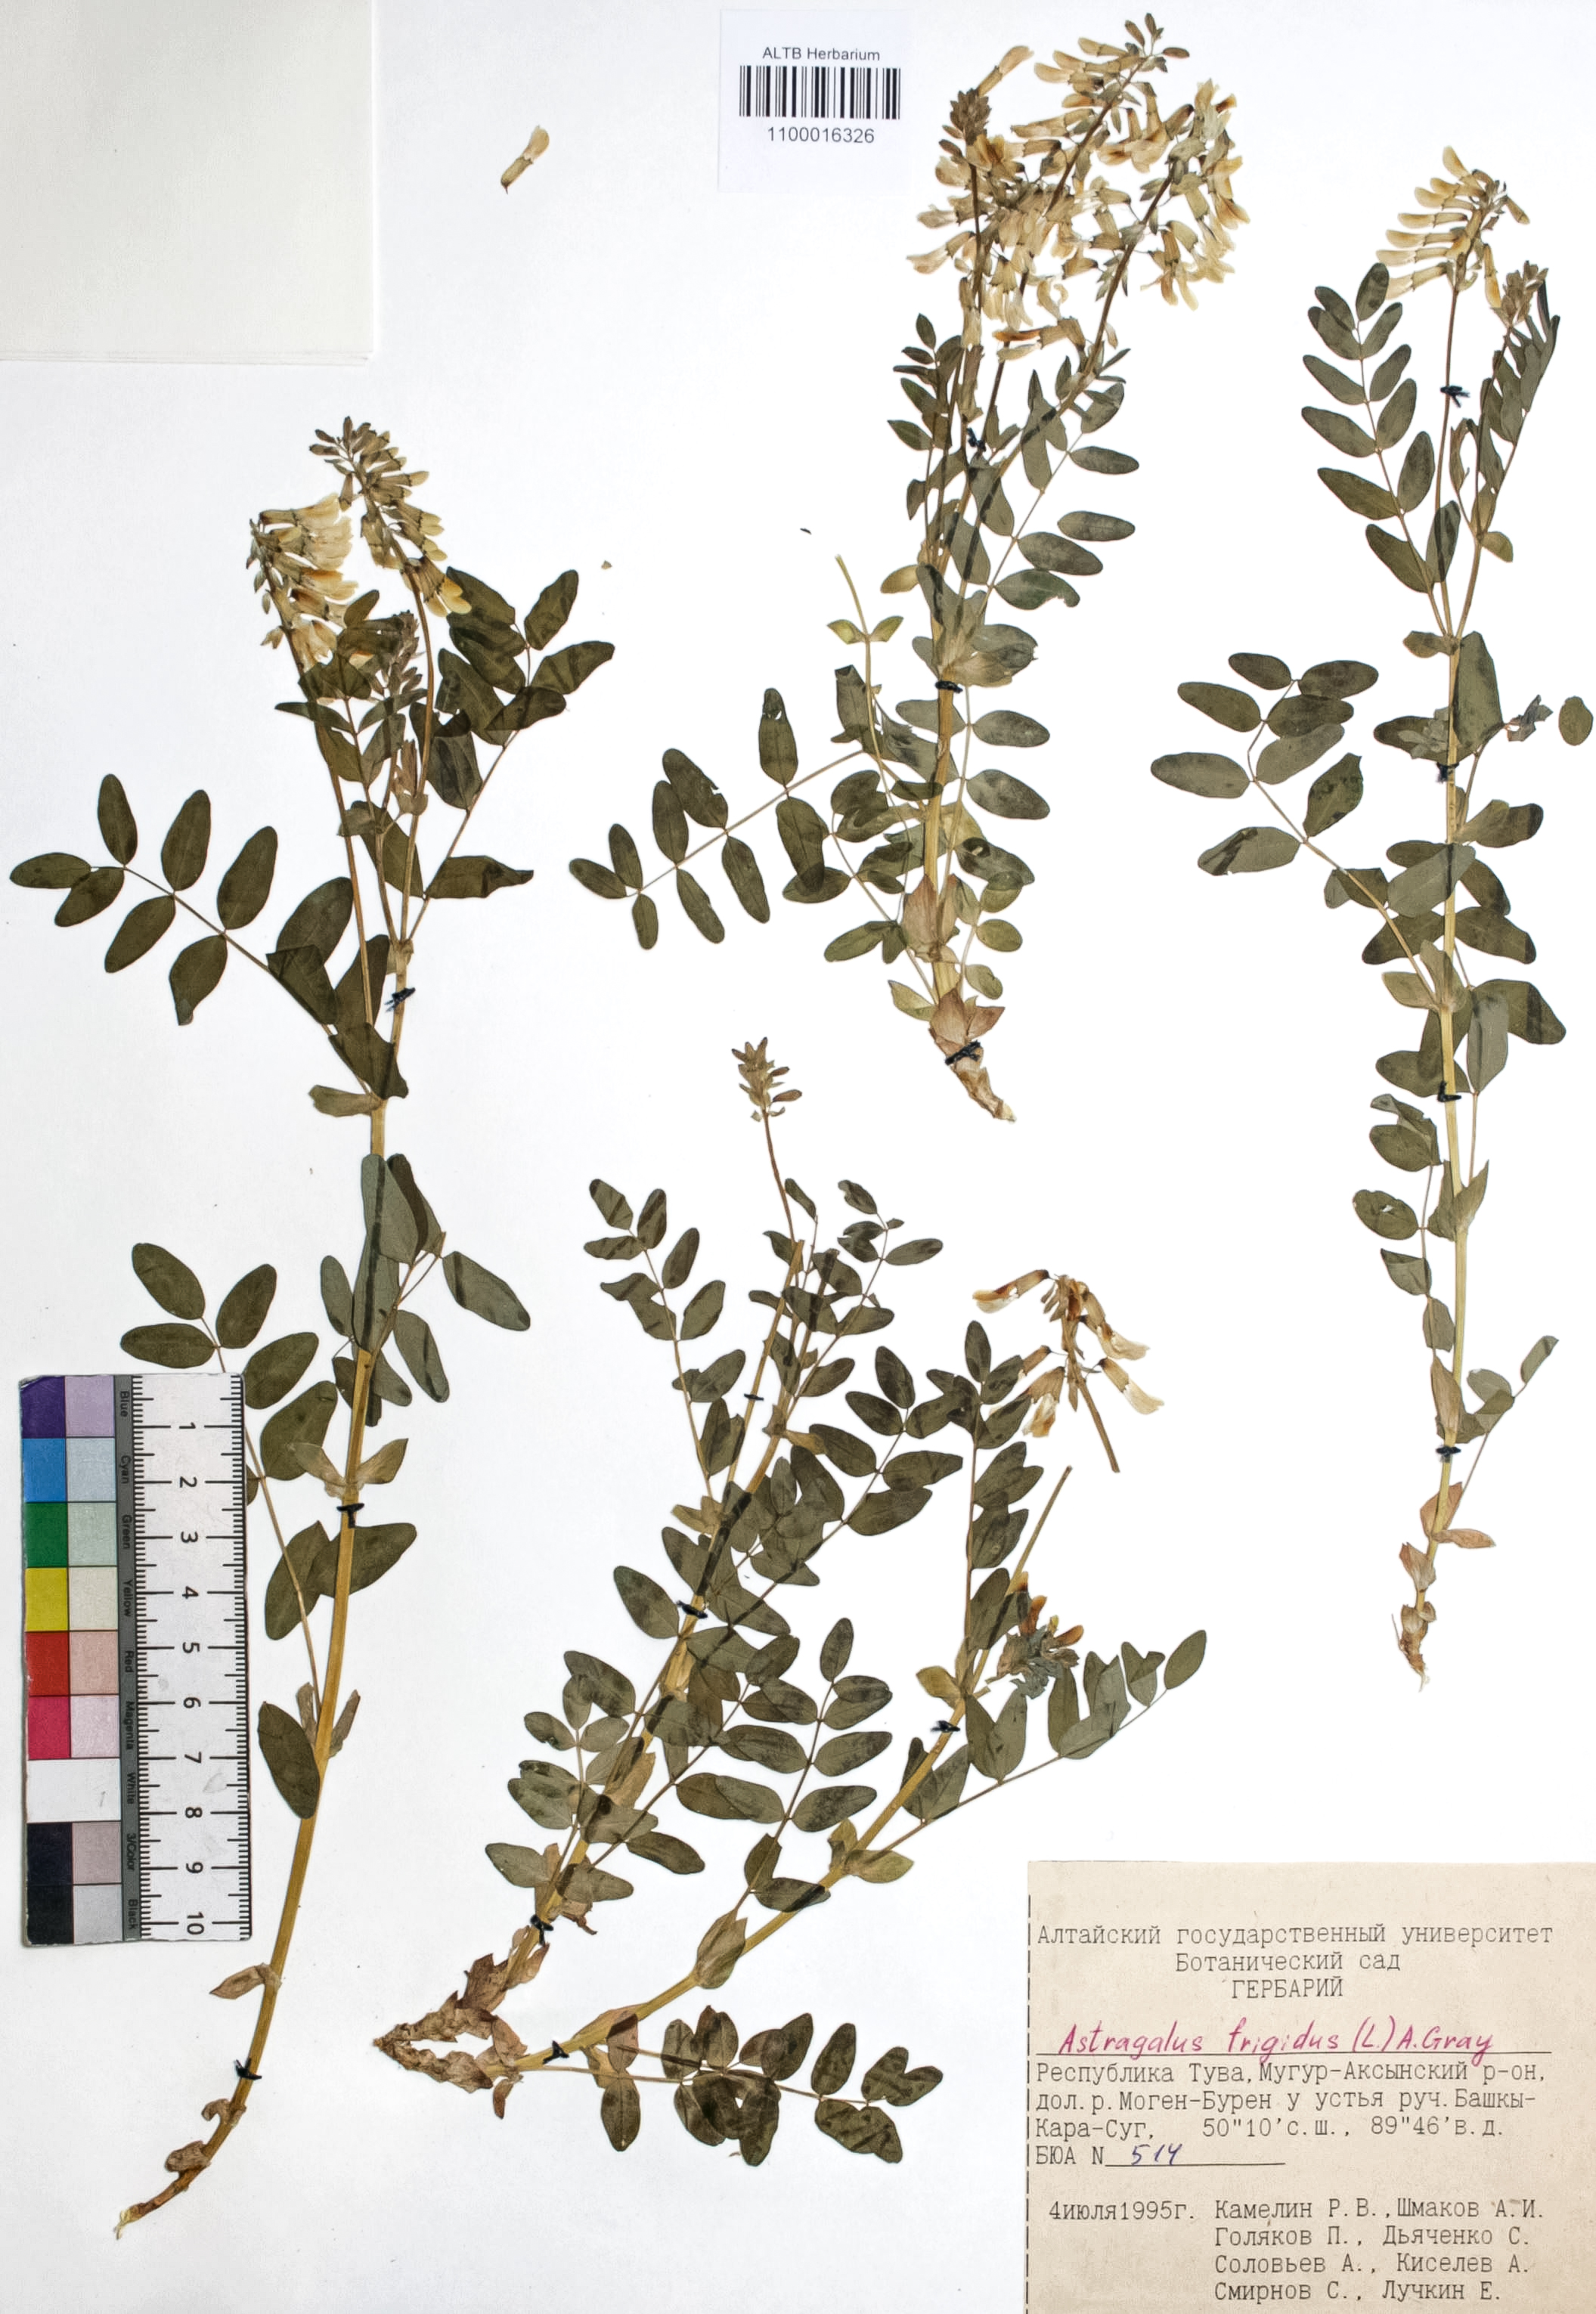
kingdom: Plantae
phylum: Tracheophyta
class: Magnoliopsida
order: Fabales
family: Fabaceae
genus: Astragalus
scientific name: Astragalus frigidus
